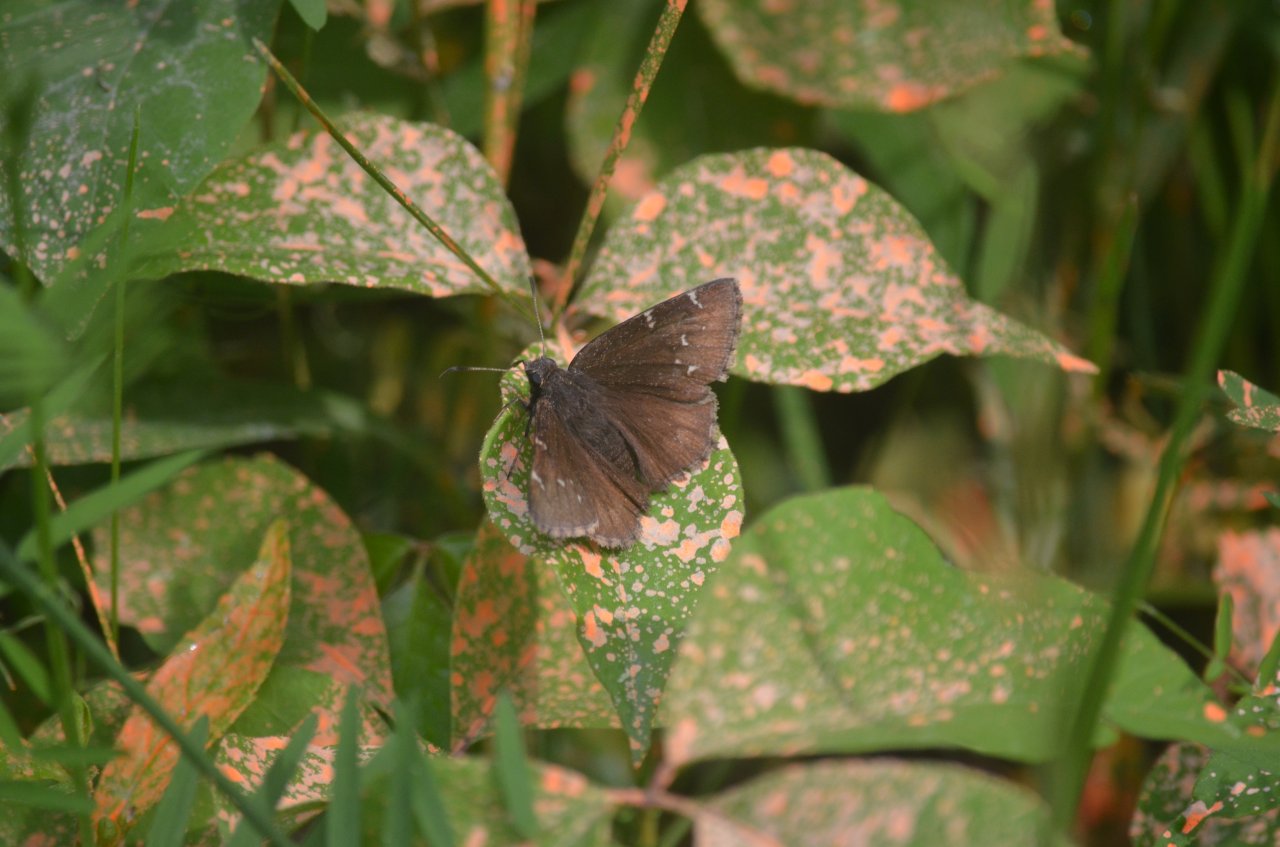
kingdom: Animalia
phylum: Arthropoda
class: Insecta
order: Lepidoptera
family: Hesperiidae
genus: Autochton
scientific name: Autochton
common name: Northern Cloudywing
